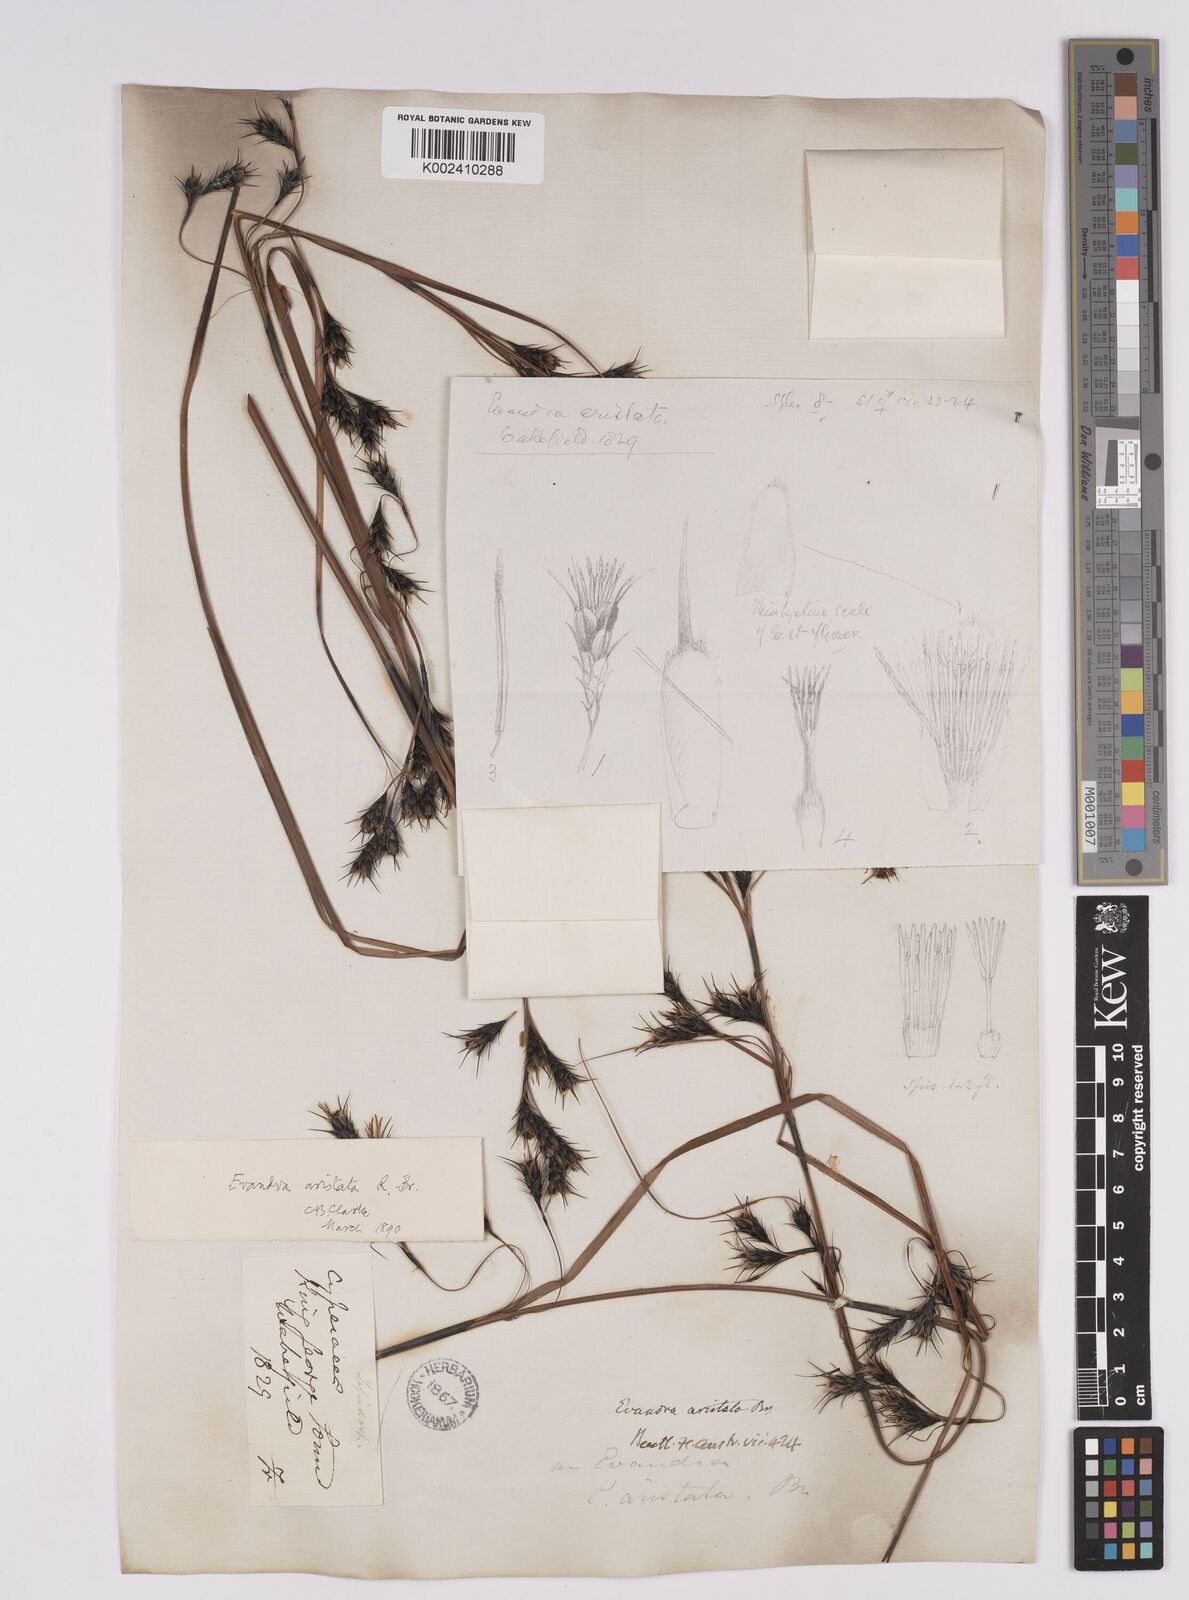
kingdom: Plantae
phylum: Tracheophyta
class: Liliopsida
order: Poales
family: Cyperaceae
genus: Evandra
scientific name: Evandra aristata
